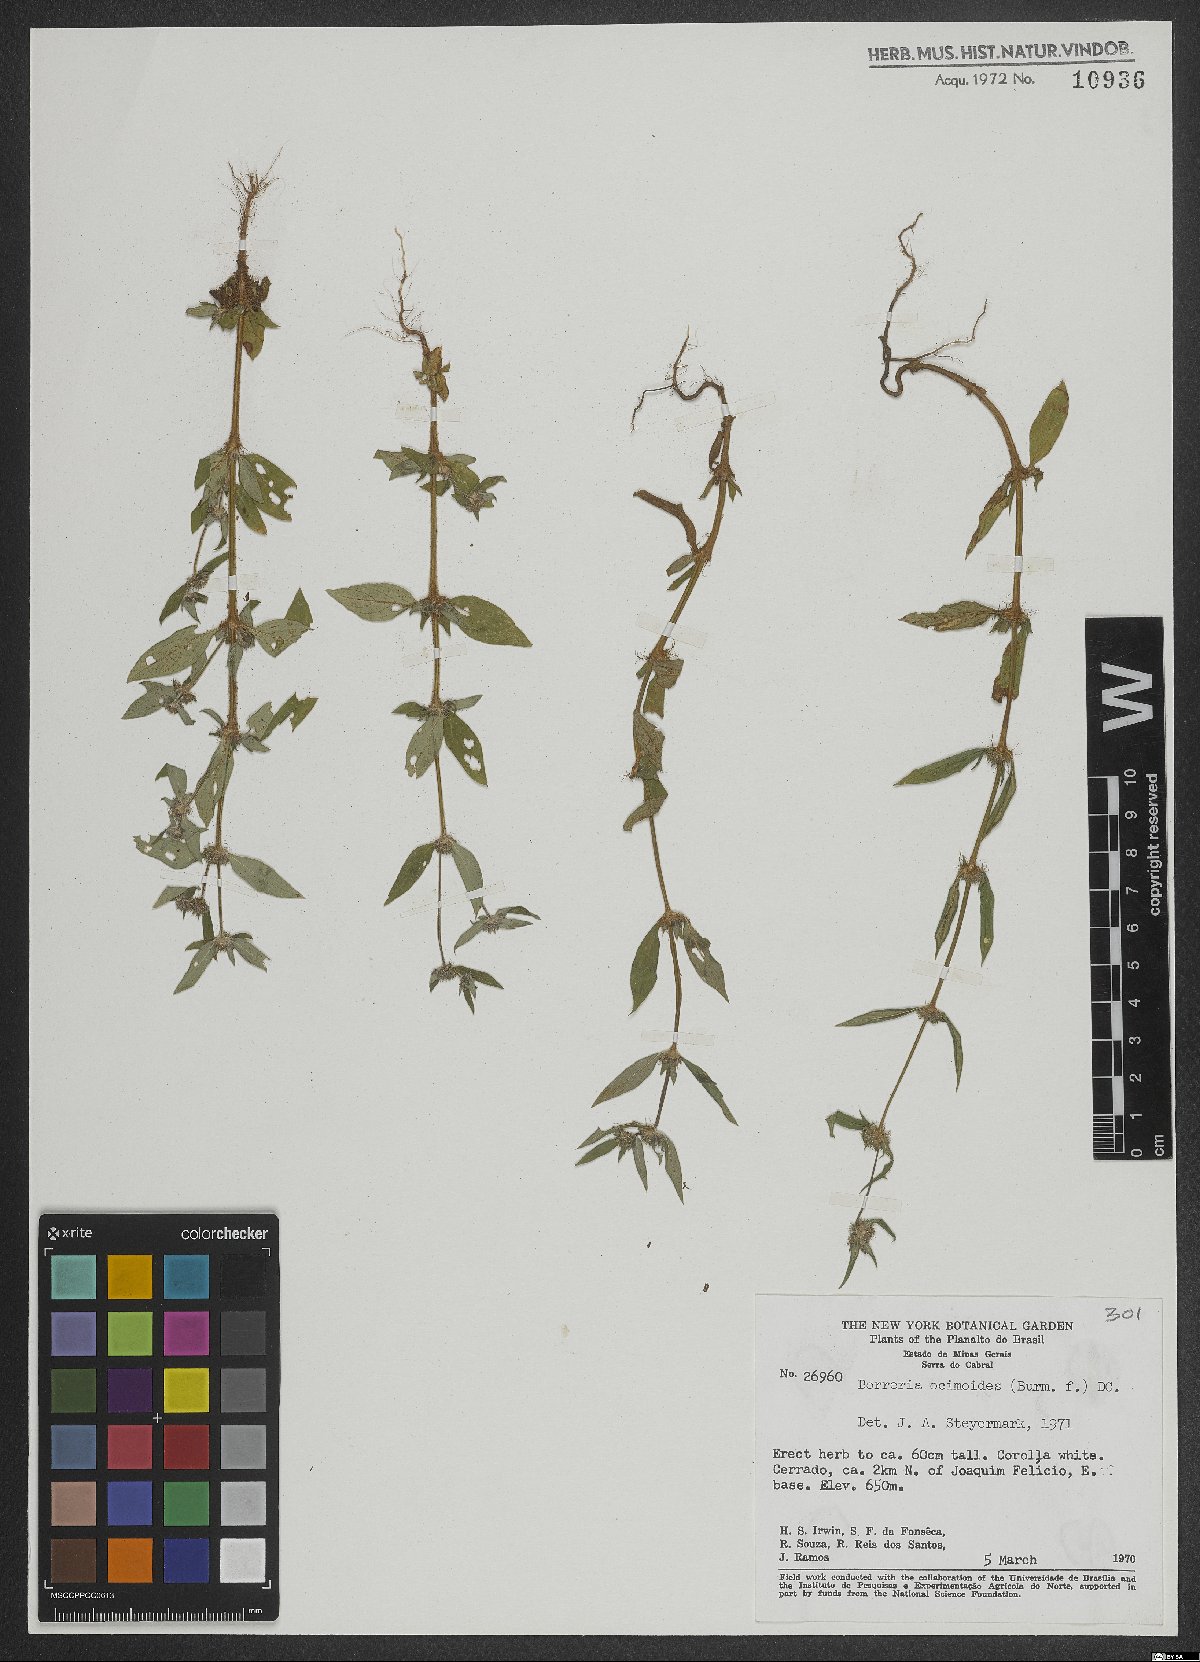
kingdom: Plantae
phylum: Tracheophyta
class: Magnoliopsida
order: Gentianales
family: Rubiaceae
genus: Spermacoce
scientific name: Spermacoce ocymoides
